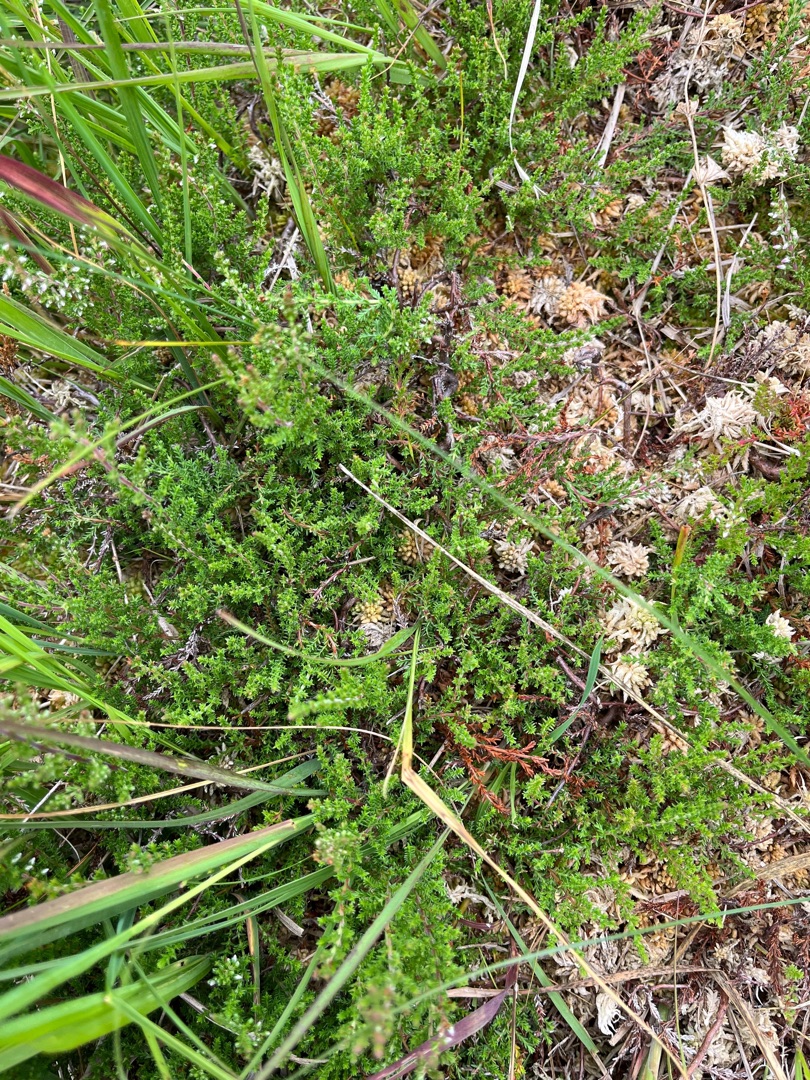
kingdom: Plantae
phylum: Tracheophyta
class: Magnoliopsida
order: Ericales
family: Ericaceae
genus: Calluna
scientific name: Calluna vulgaris
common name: Hedelyng
